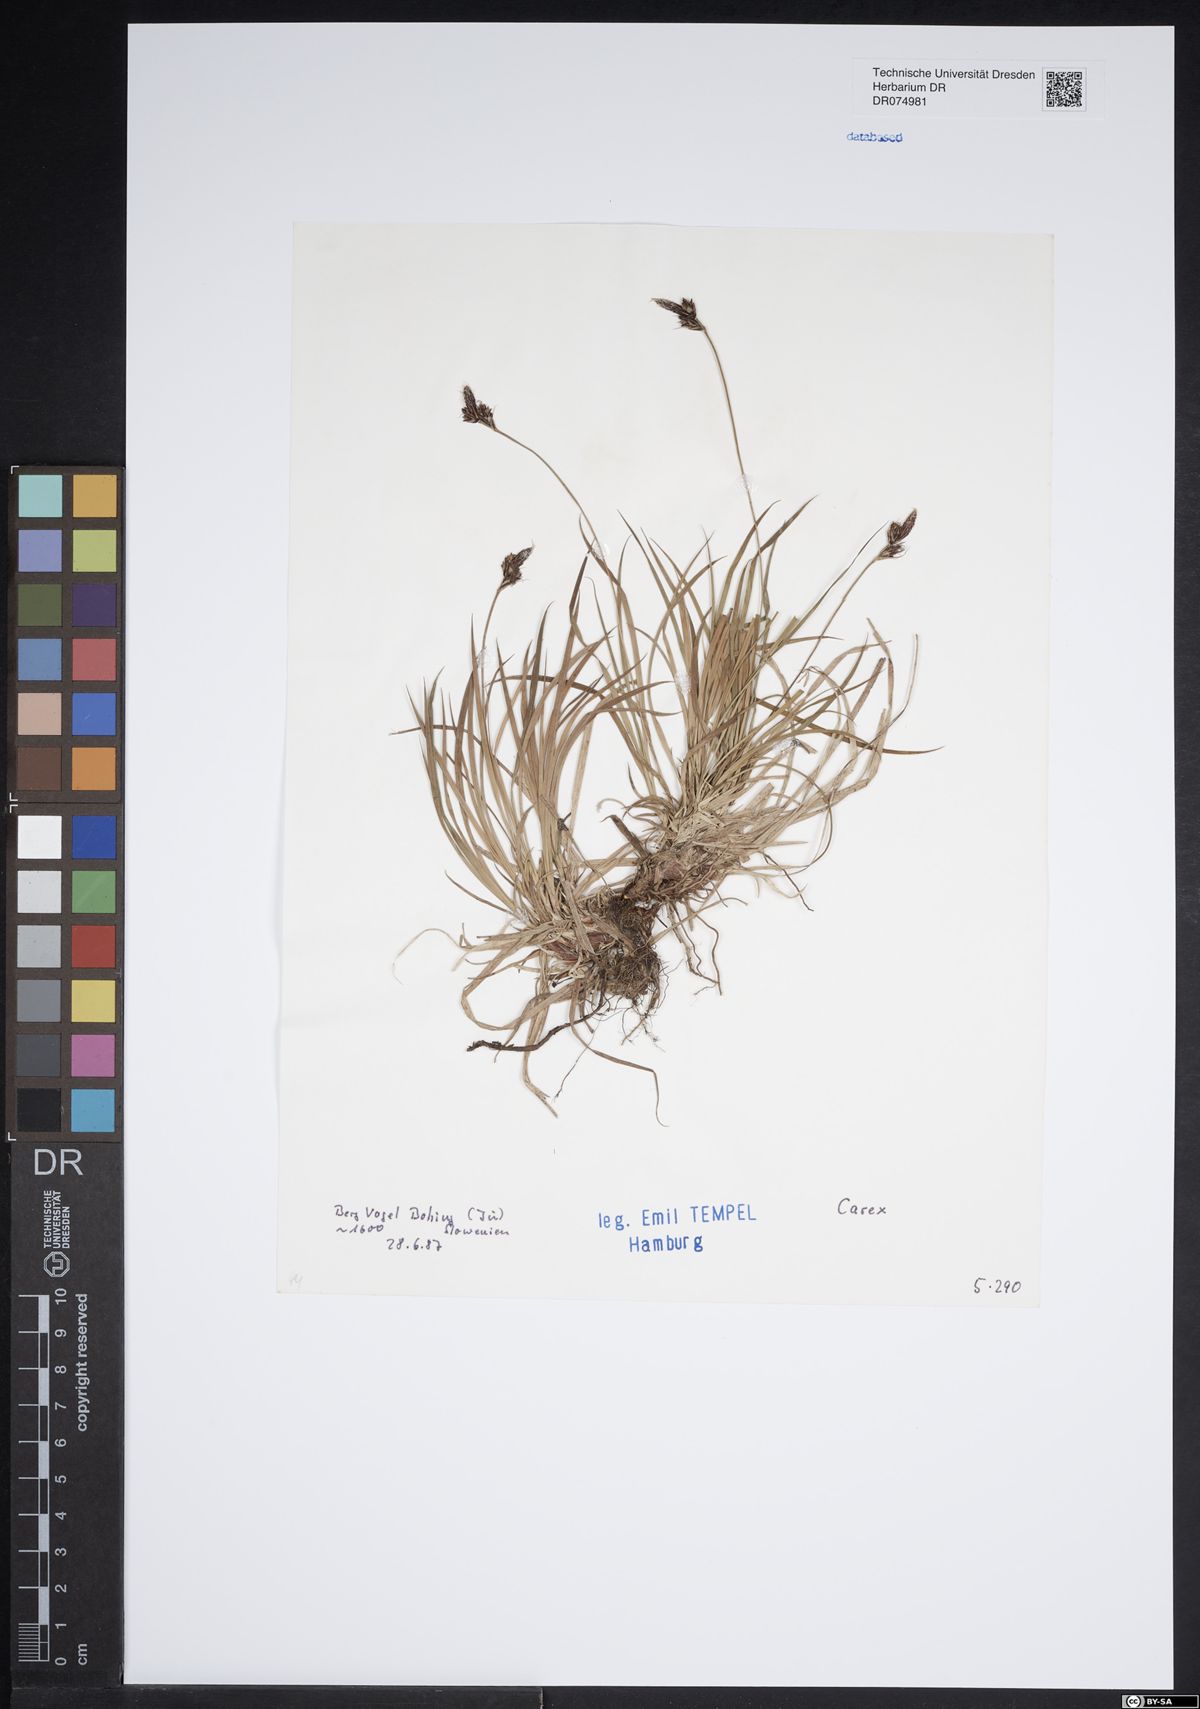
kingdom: Plantae
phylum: Tracheophyta
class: Liliopsida
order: Poales
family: Cyperaceae
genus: Carex
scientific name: Carex
